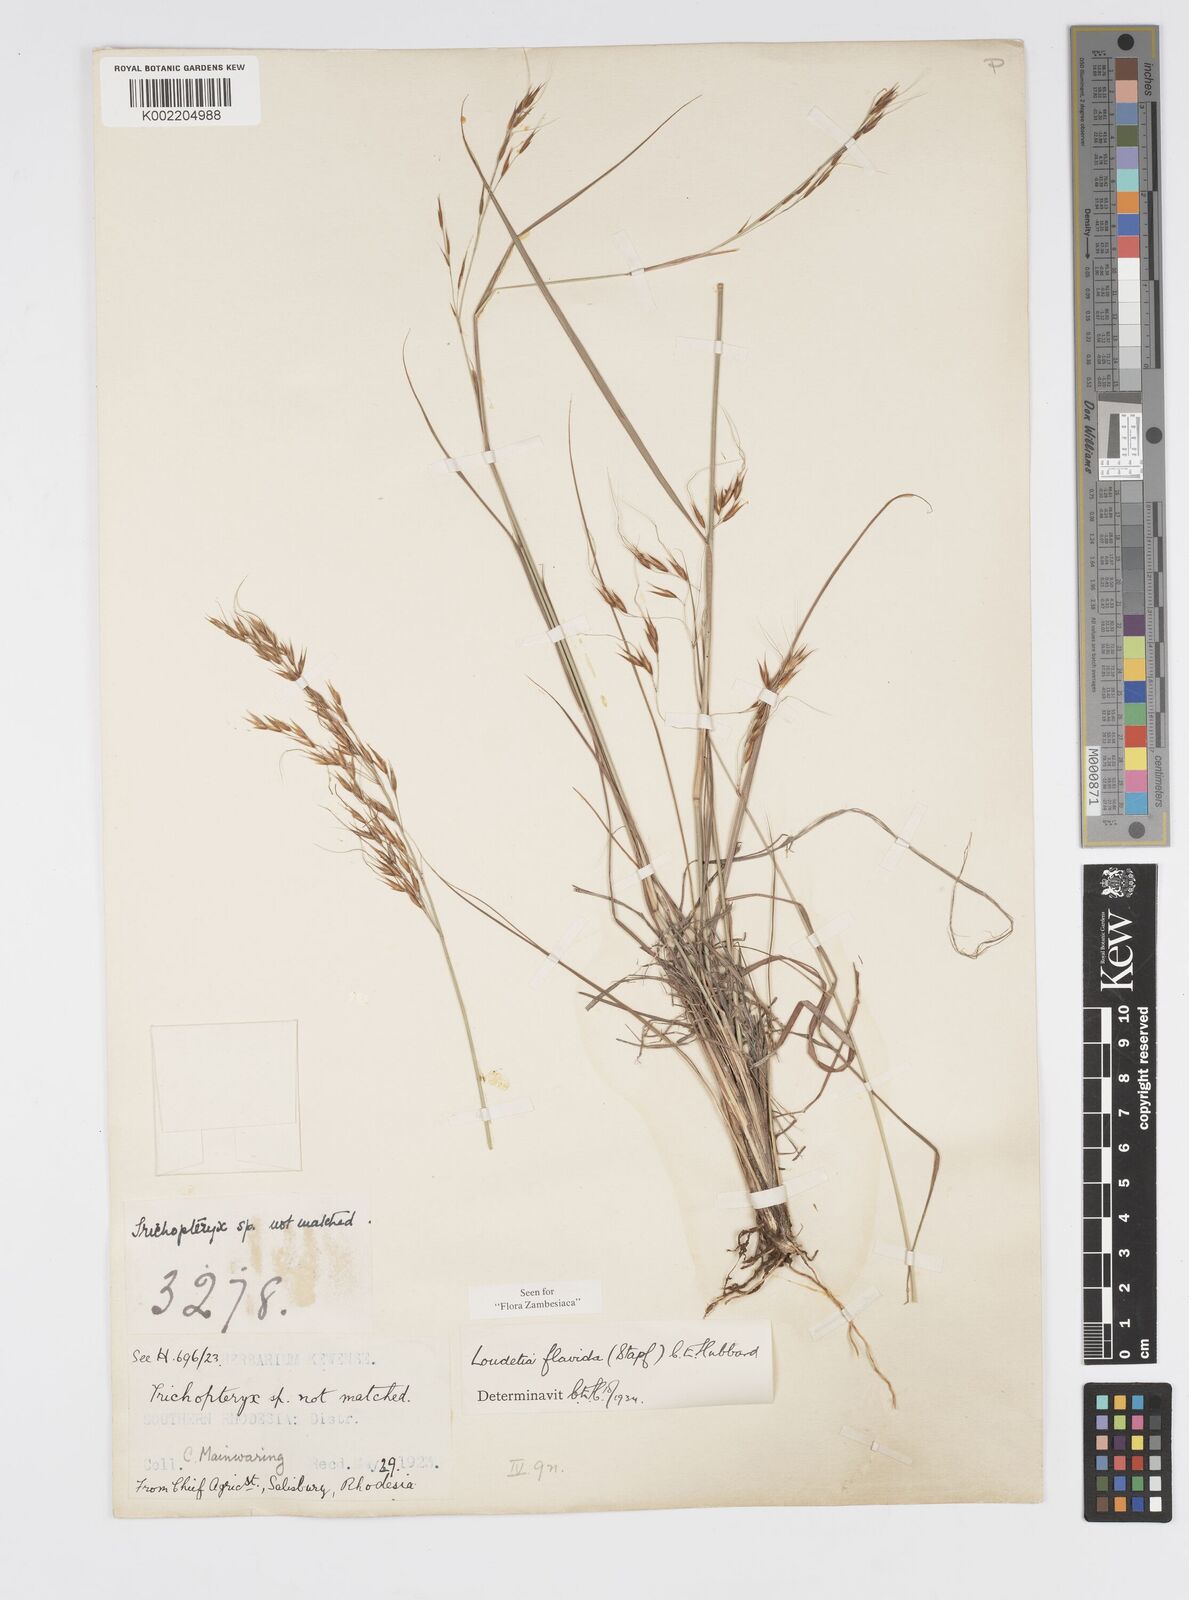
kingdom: Plantae
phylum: Tracheophyta
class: Liliopsida
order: Poales
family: Poaceae
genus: Loudetia
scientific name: Loudetia flavida
